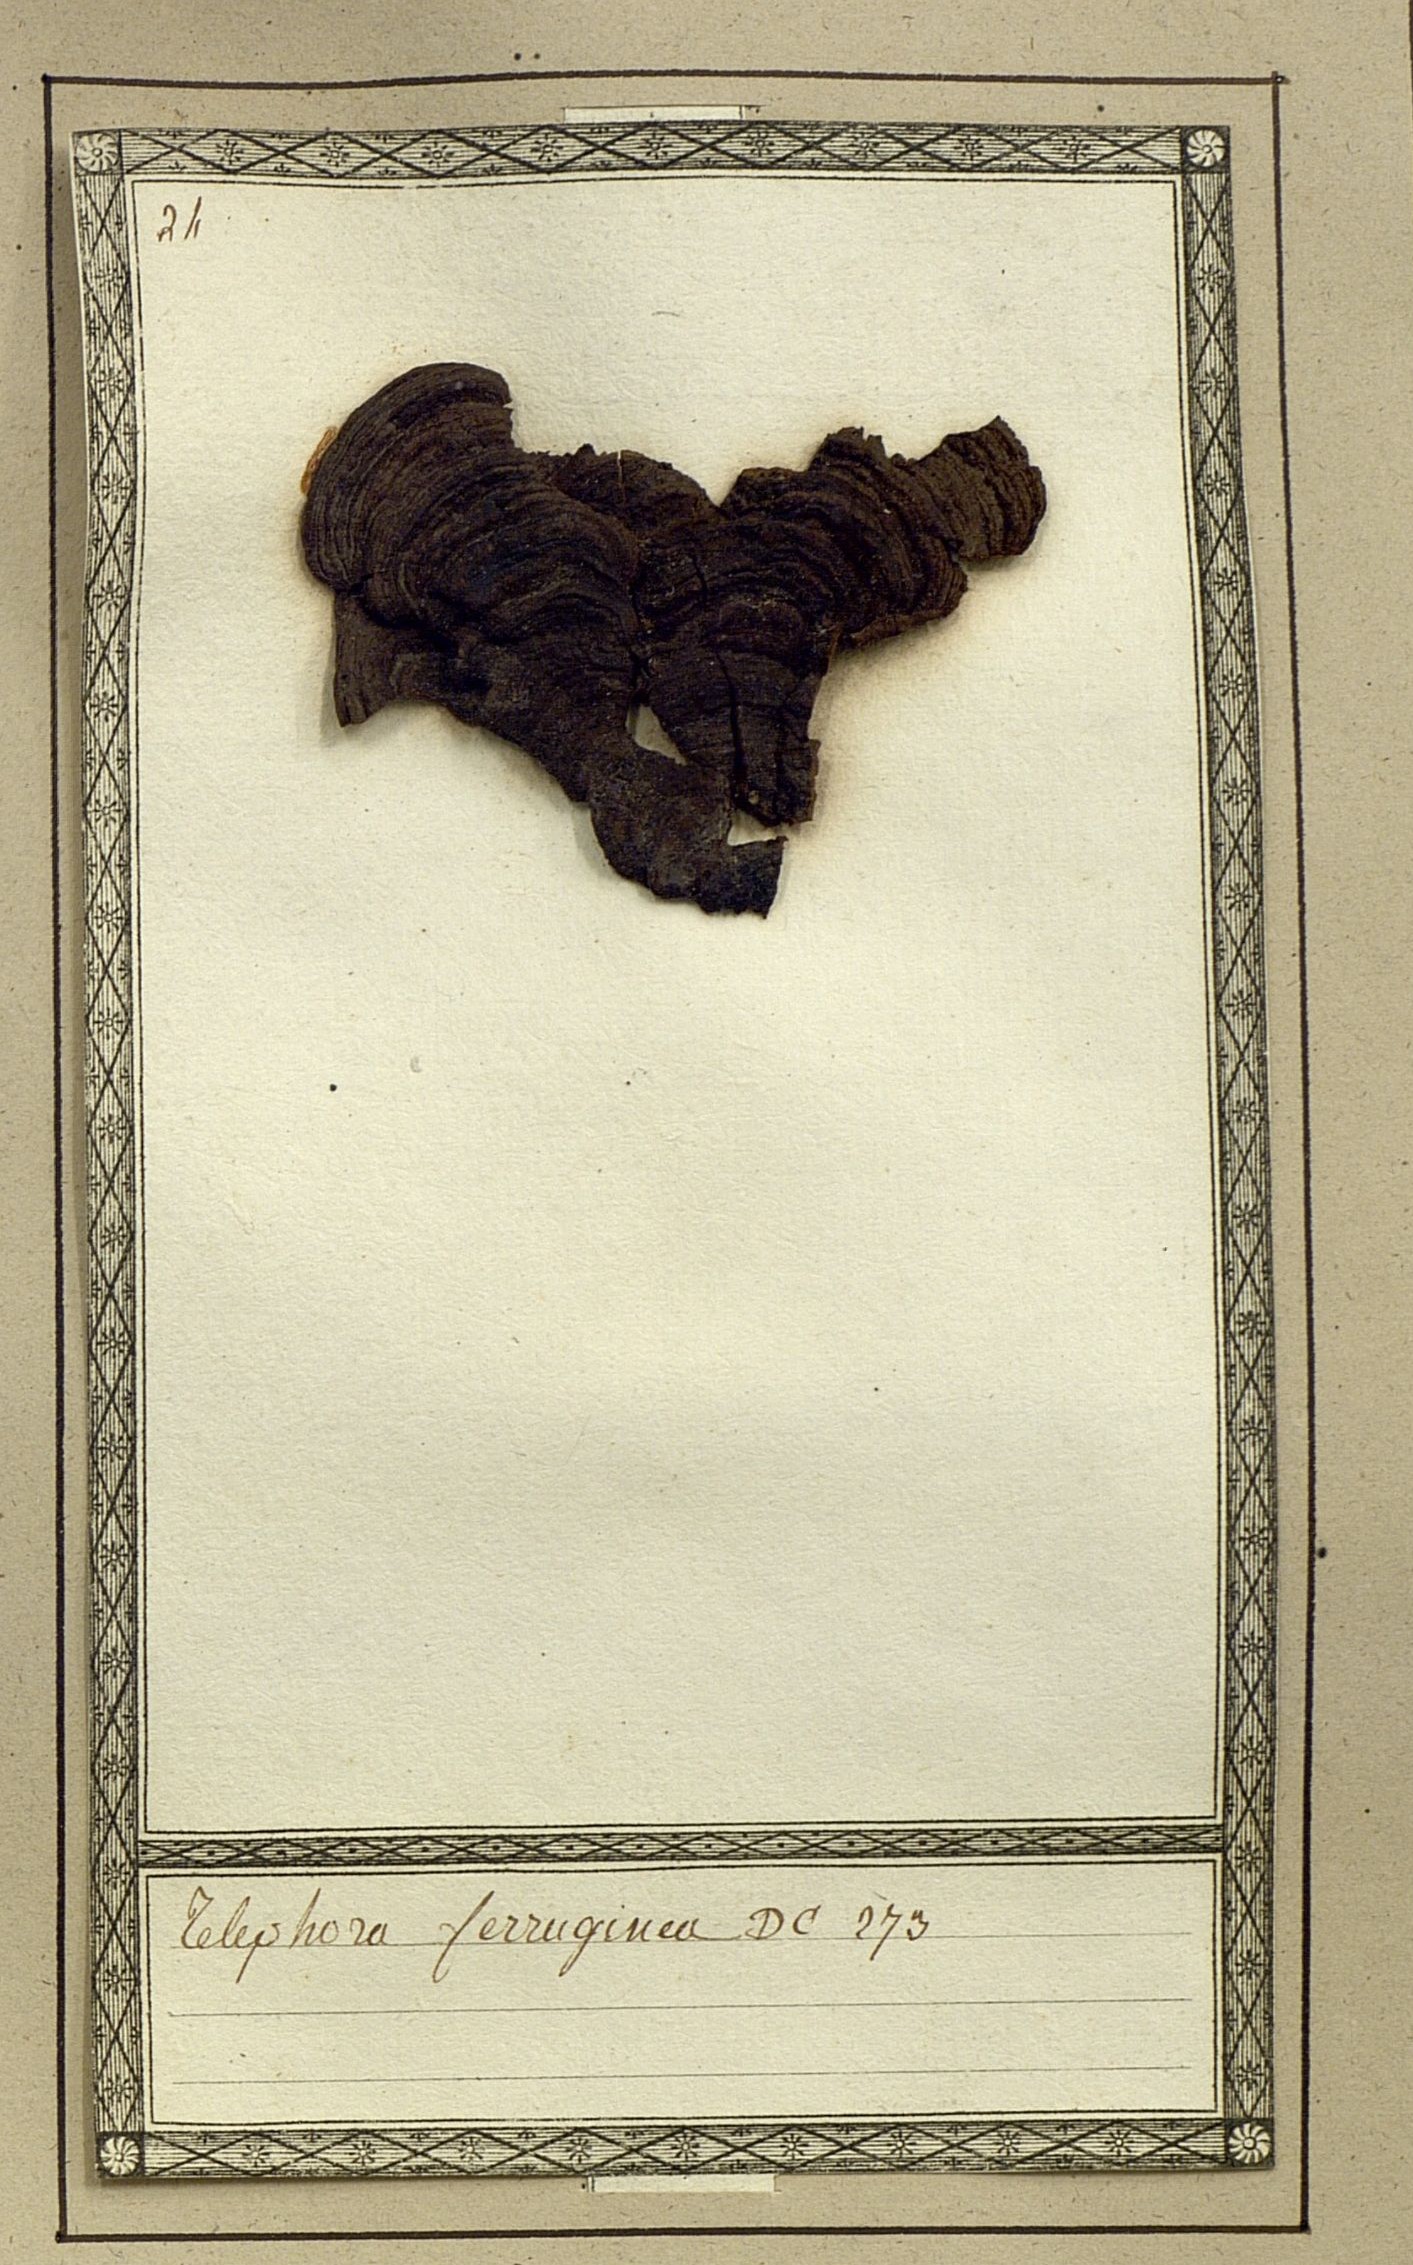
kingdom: Fungi
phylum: Basidiomycota
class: Agaricomycetes
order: Thelephorales
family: Thelephoraceae
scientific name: Thelephoraceae
